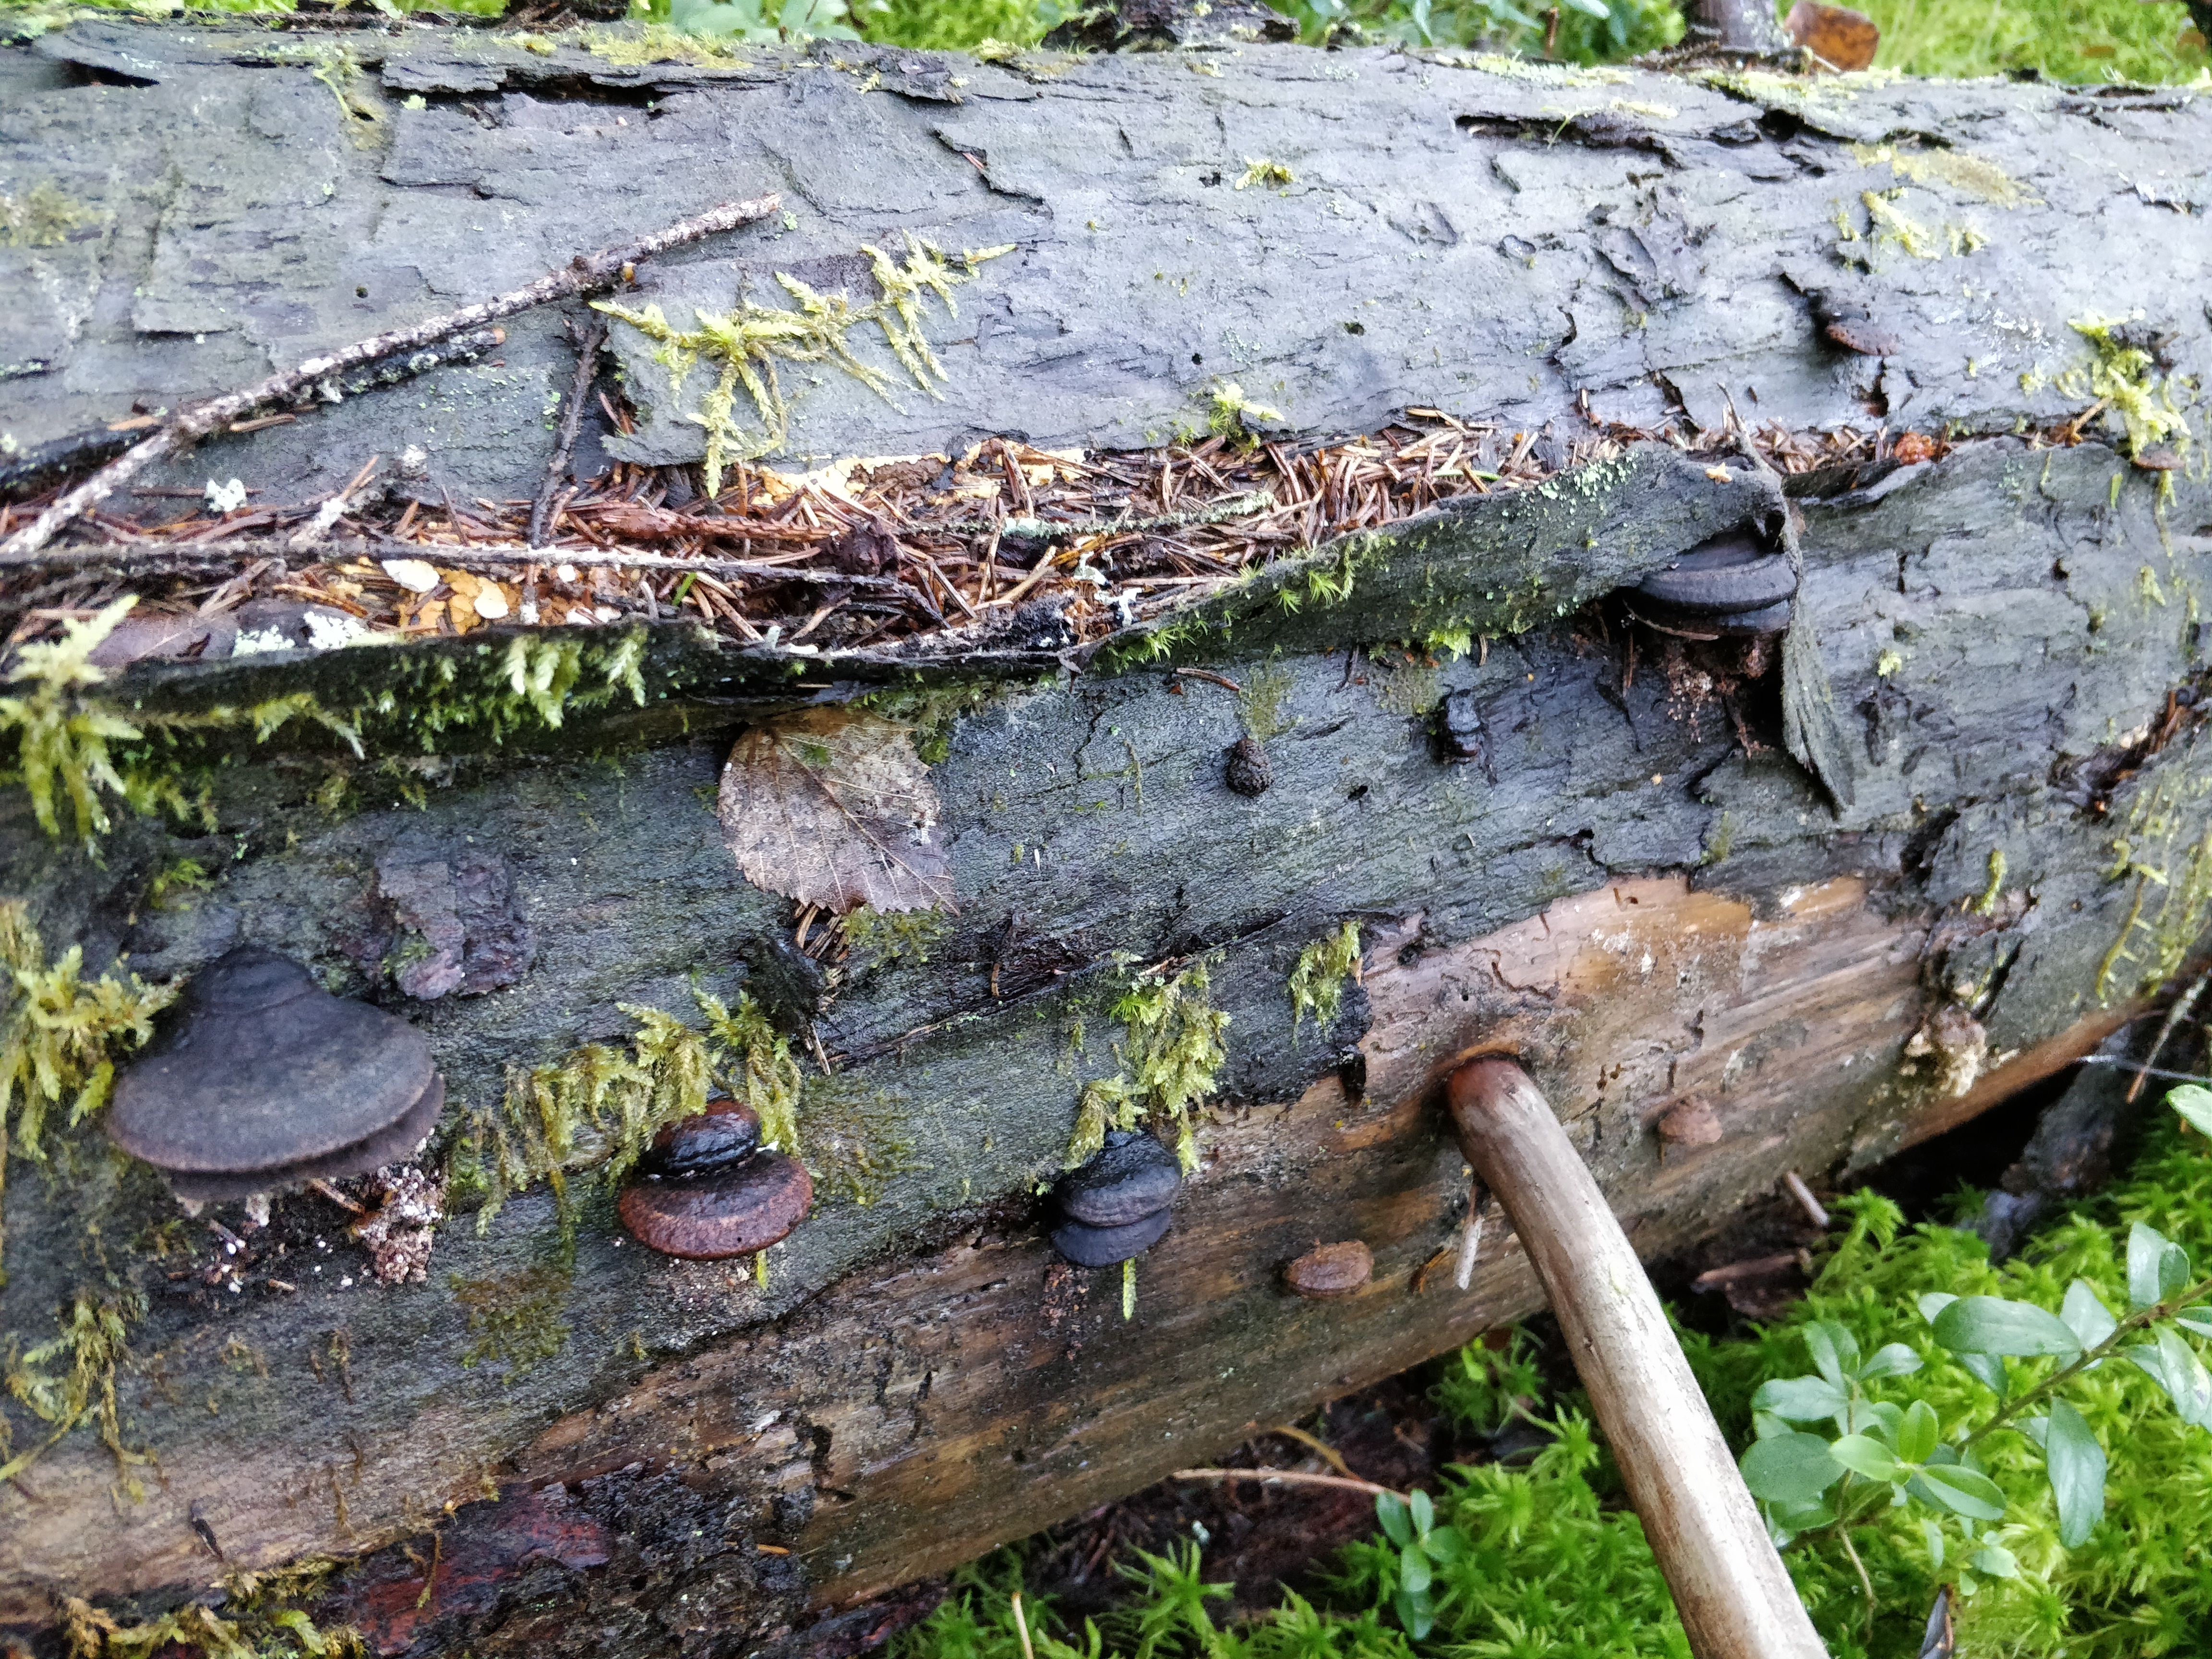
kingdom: Fungi
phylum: Basidiomycota
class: Agaricomycetes
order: Polyporales
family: Fomitopsidaceae
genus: Rhodofomes
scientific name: Rhodofomes roseus
